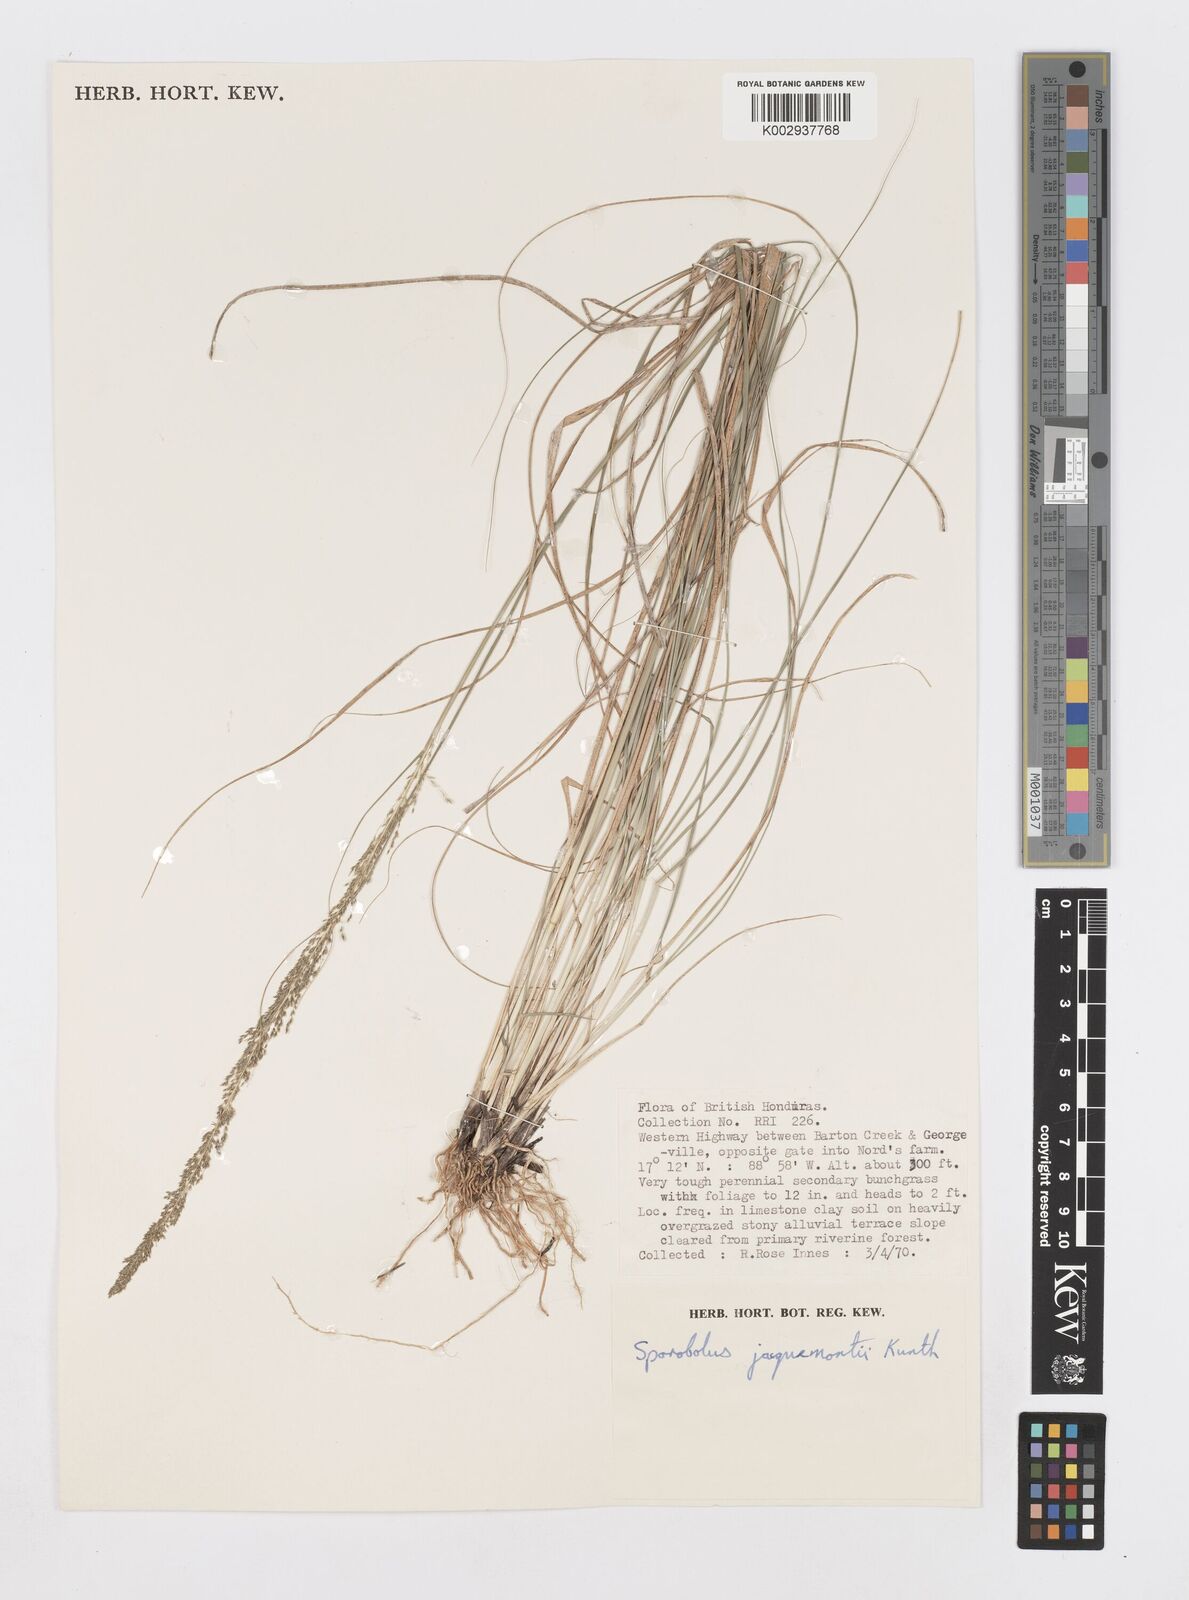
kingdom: Plantae
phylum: Tracheophyta
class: Liliopsida
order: Poales
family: Poaceae
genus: Sporobolus
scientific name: Sporobolus pyramidalis
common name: West indian dropseed
